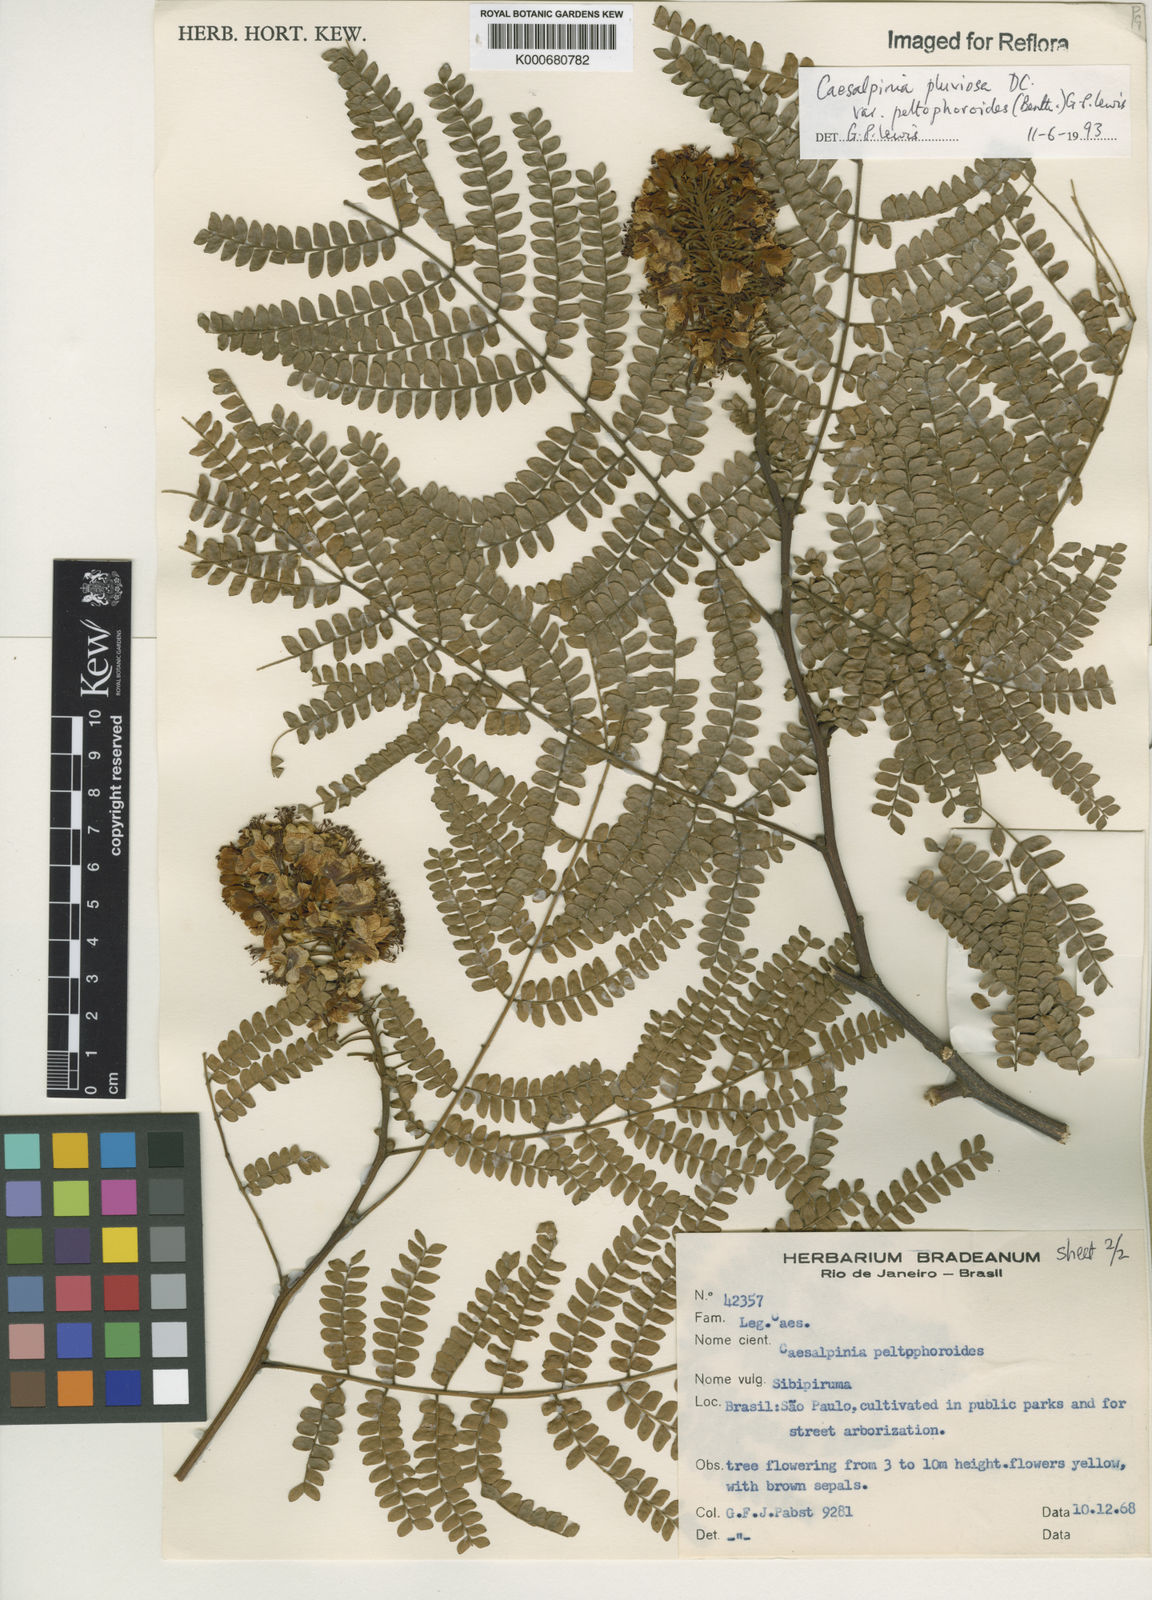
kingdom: Plantae
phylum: Tracheophyta
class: Magnoliopsida
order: Fabales
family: Fabaceae
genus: Cenostigma
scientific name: Cenostigma pluviosum
